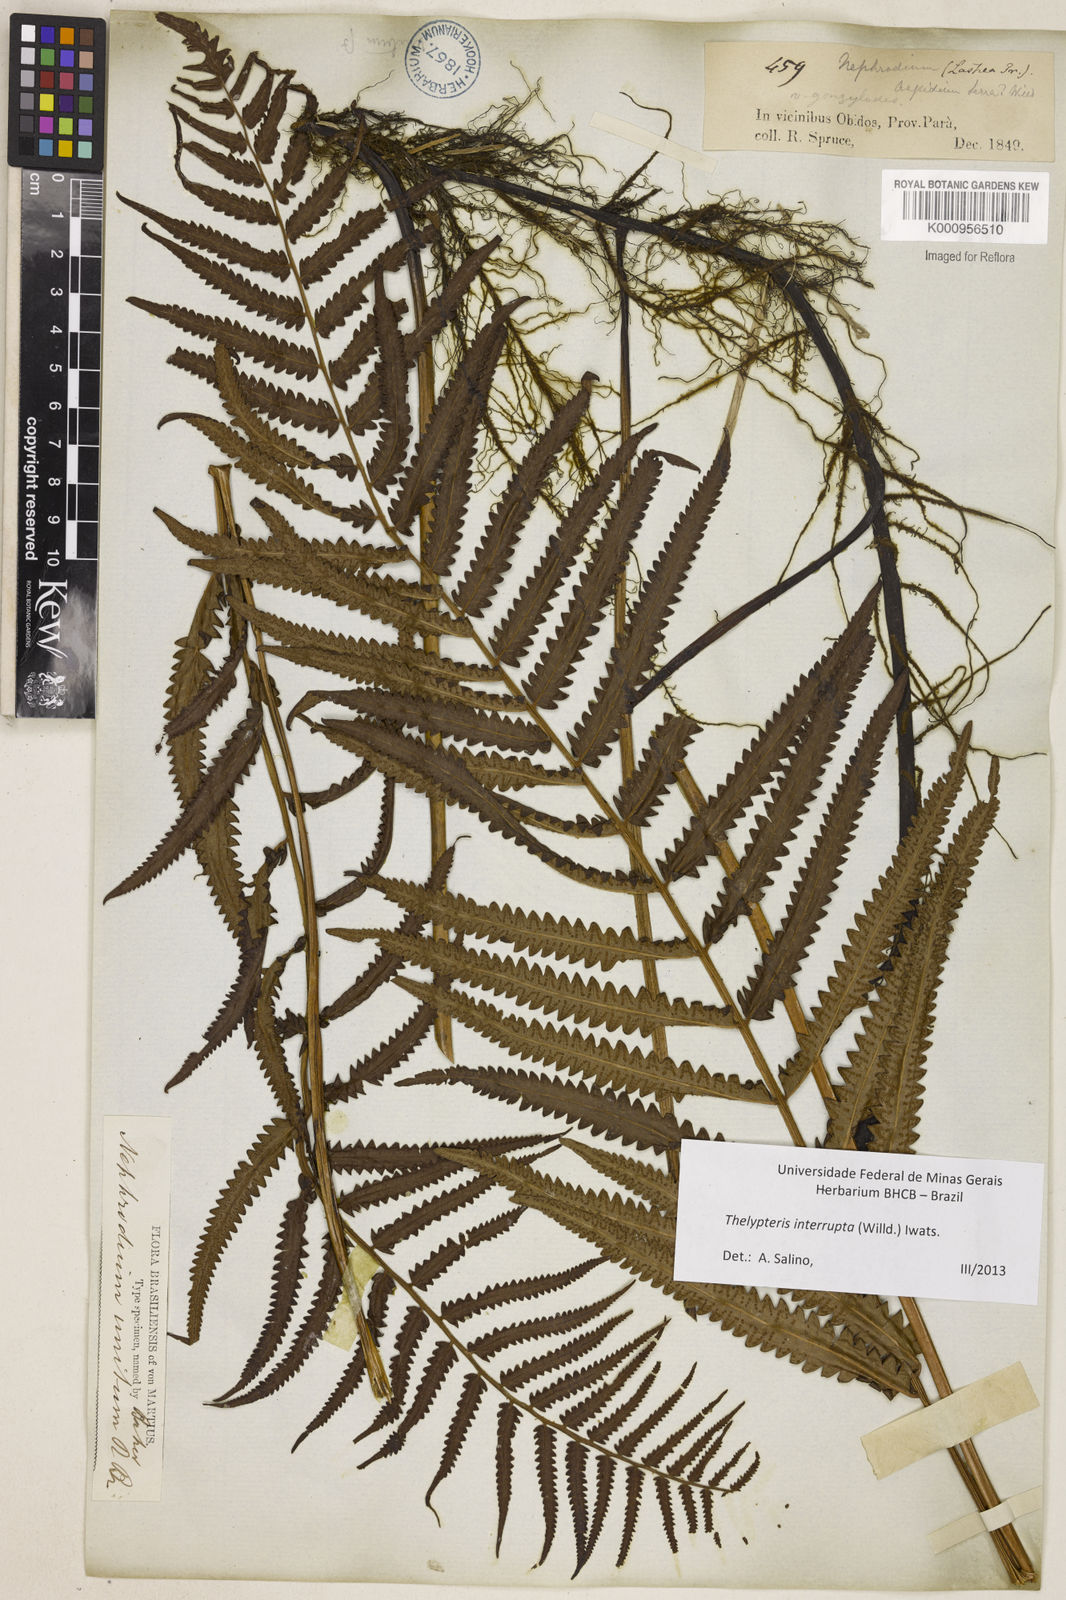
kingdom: Plantae
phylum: Tracheophyta
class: Polypodiopsida
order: Polypodiales
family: Thelypteridaceae
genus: Cyclosorus
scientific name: Cyclosorus interruptus
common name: Neke fern
